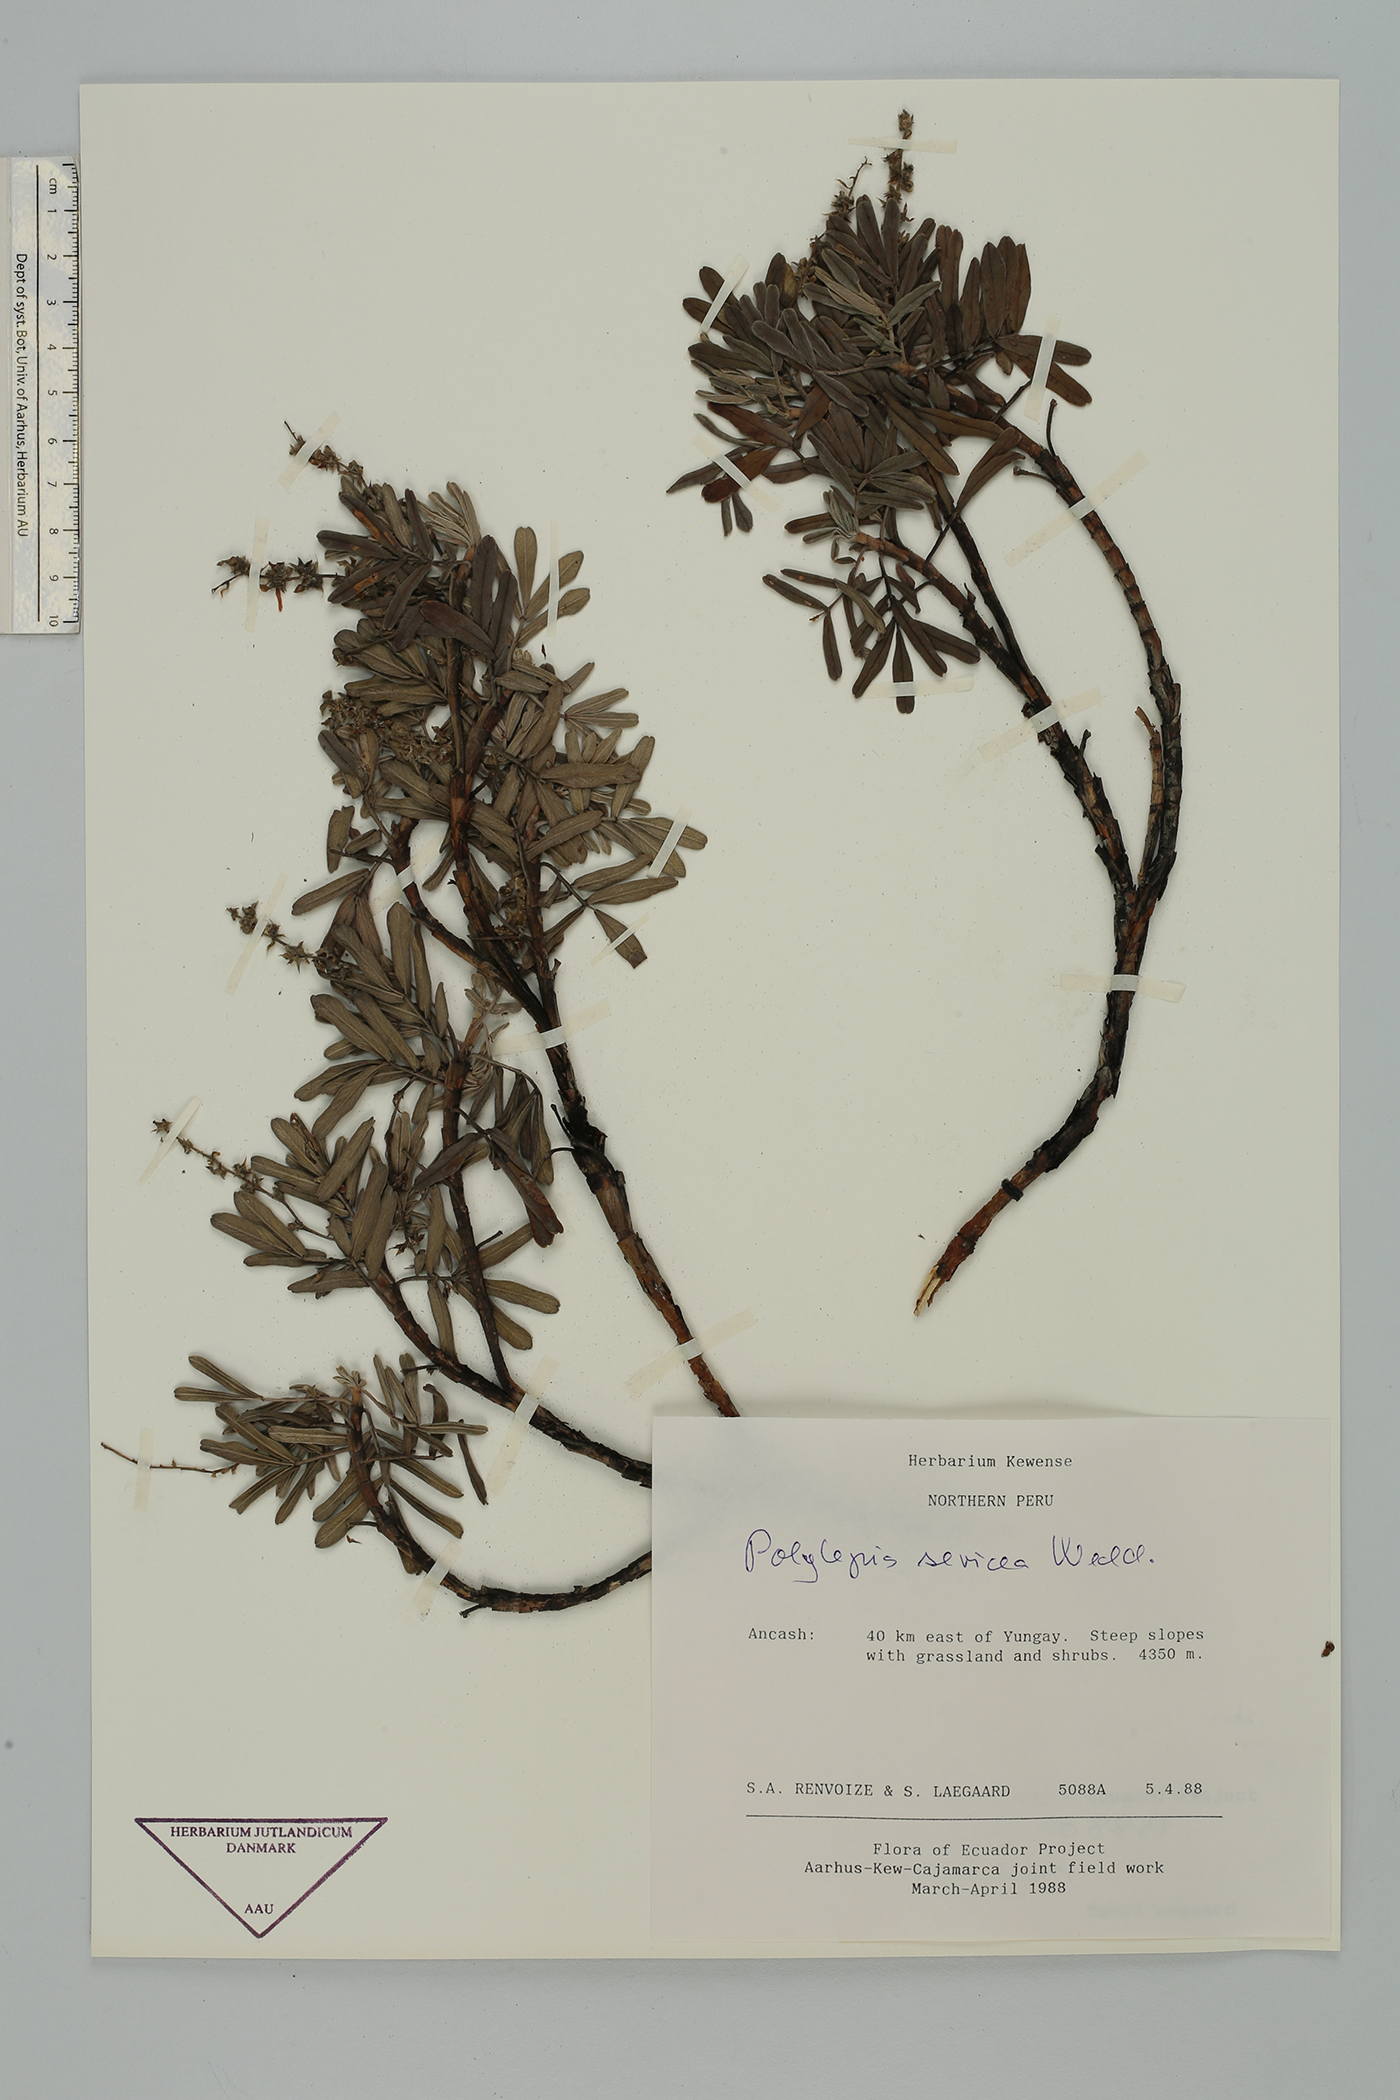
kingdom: Plantae
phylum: Tracheophyta
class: Magnoliopsida
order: Rosales
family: Rosaceae
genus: Polylepis
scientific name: Polylepis sericea
